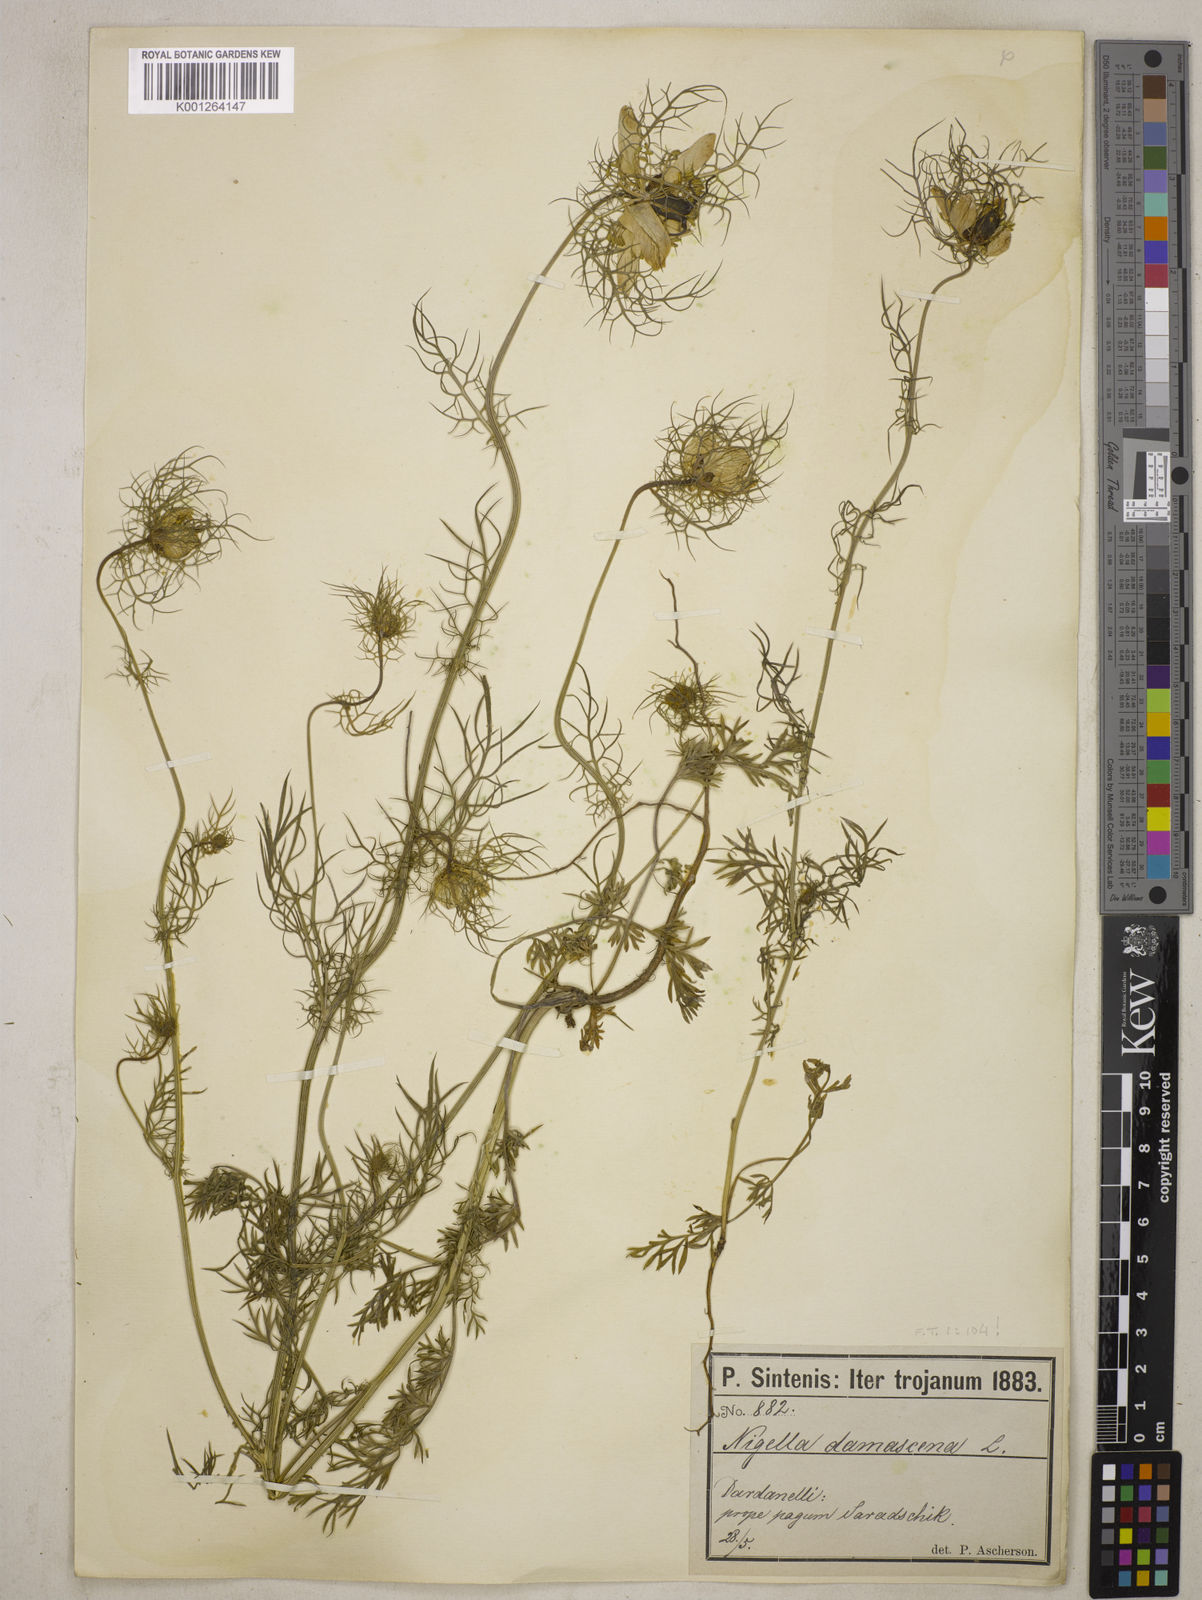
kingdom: Plantae
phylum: Tracheophyta
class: Magnoliopsida
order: Ranunculales
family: Ranunculaceae
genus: Nigella
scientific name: Nigella damascena
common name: Love-in-a-mist
